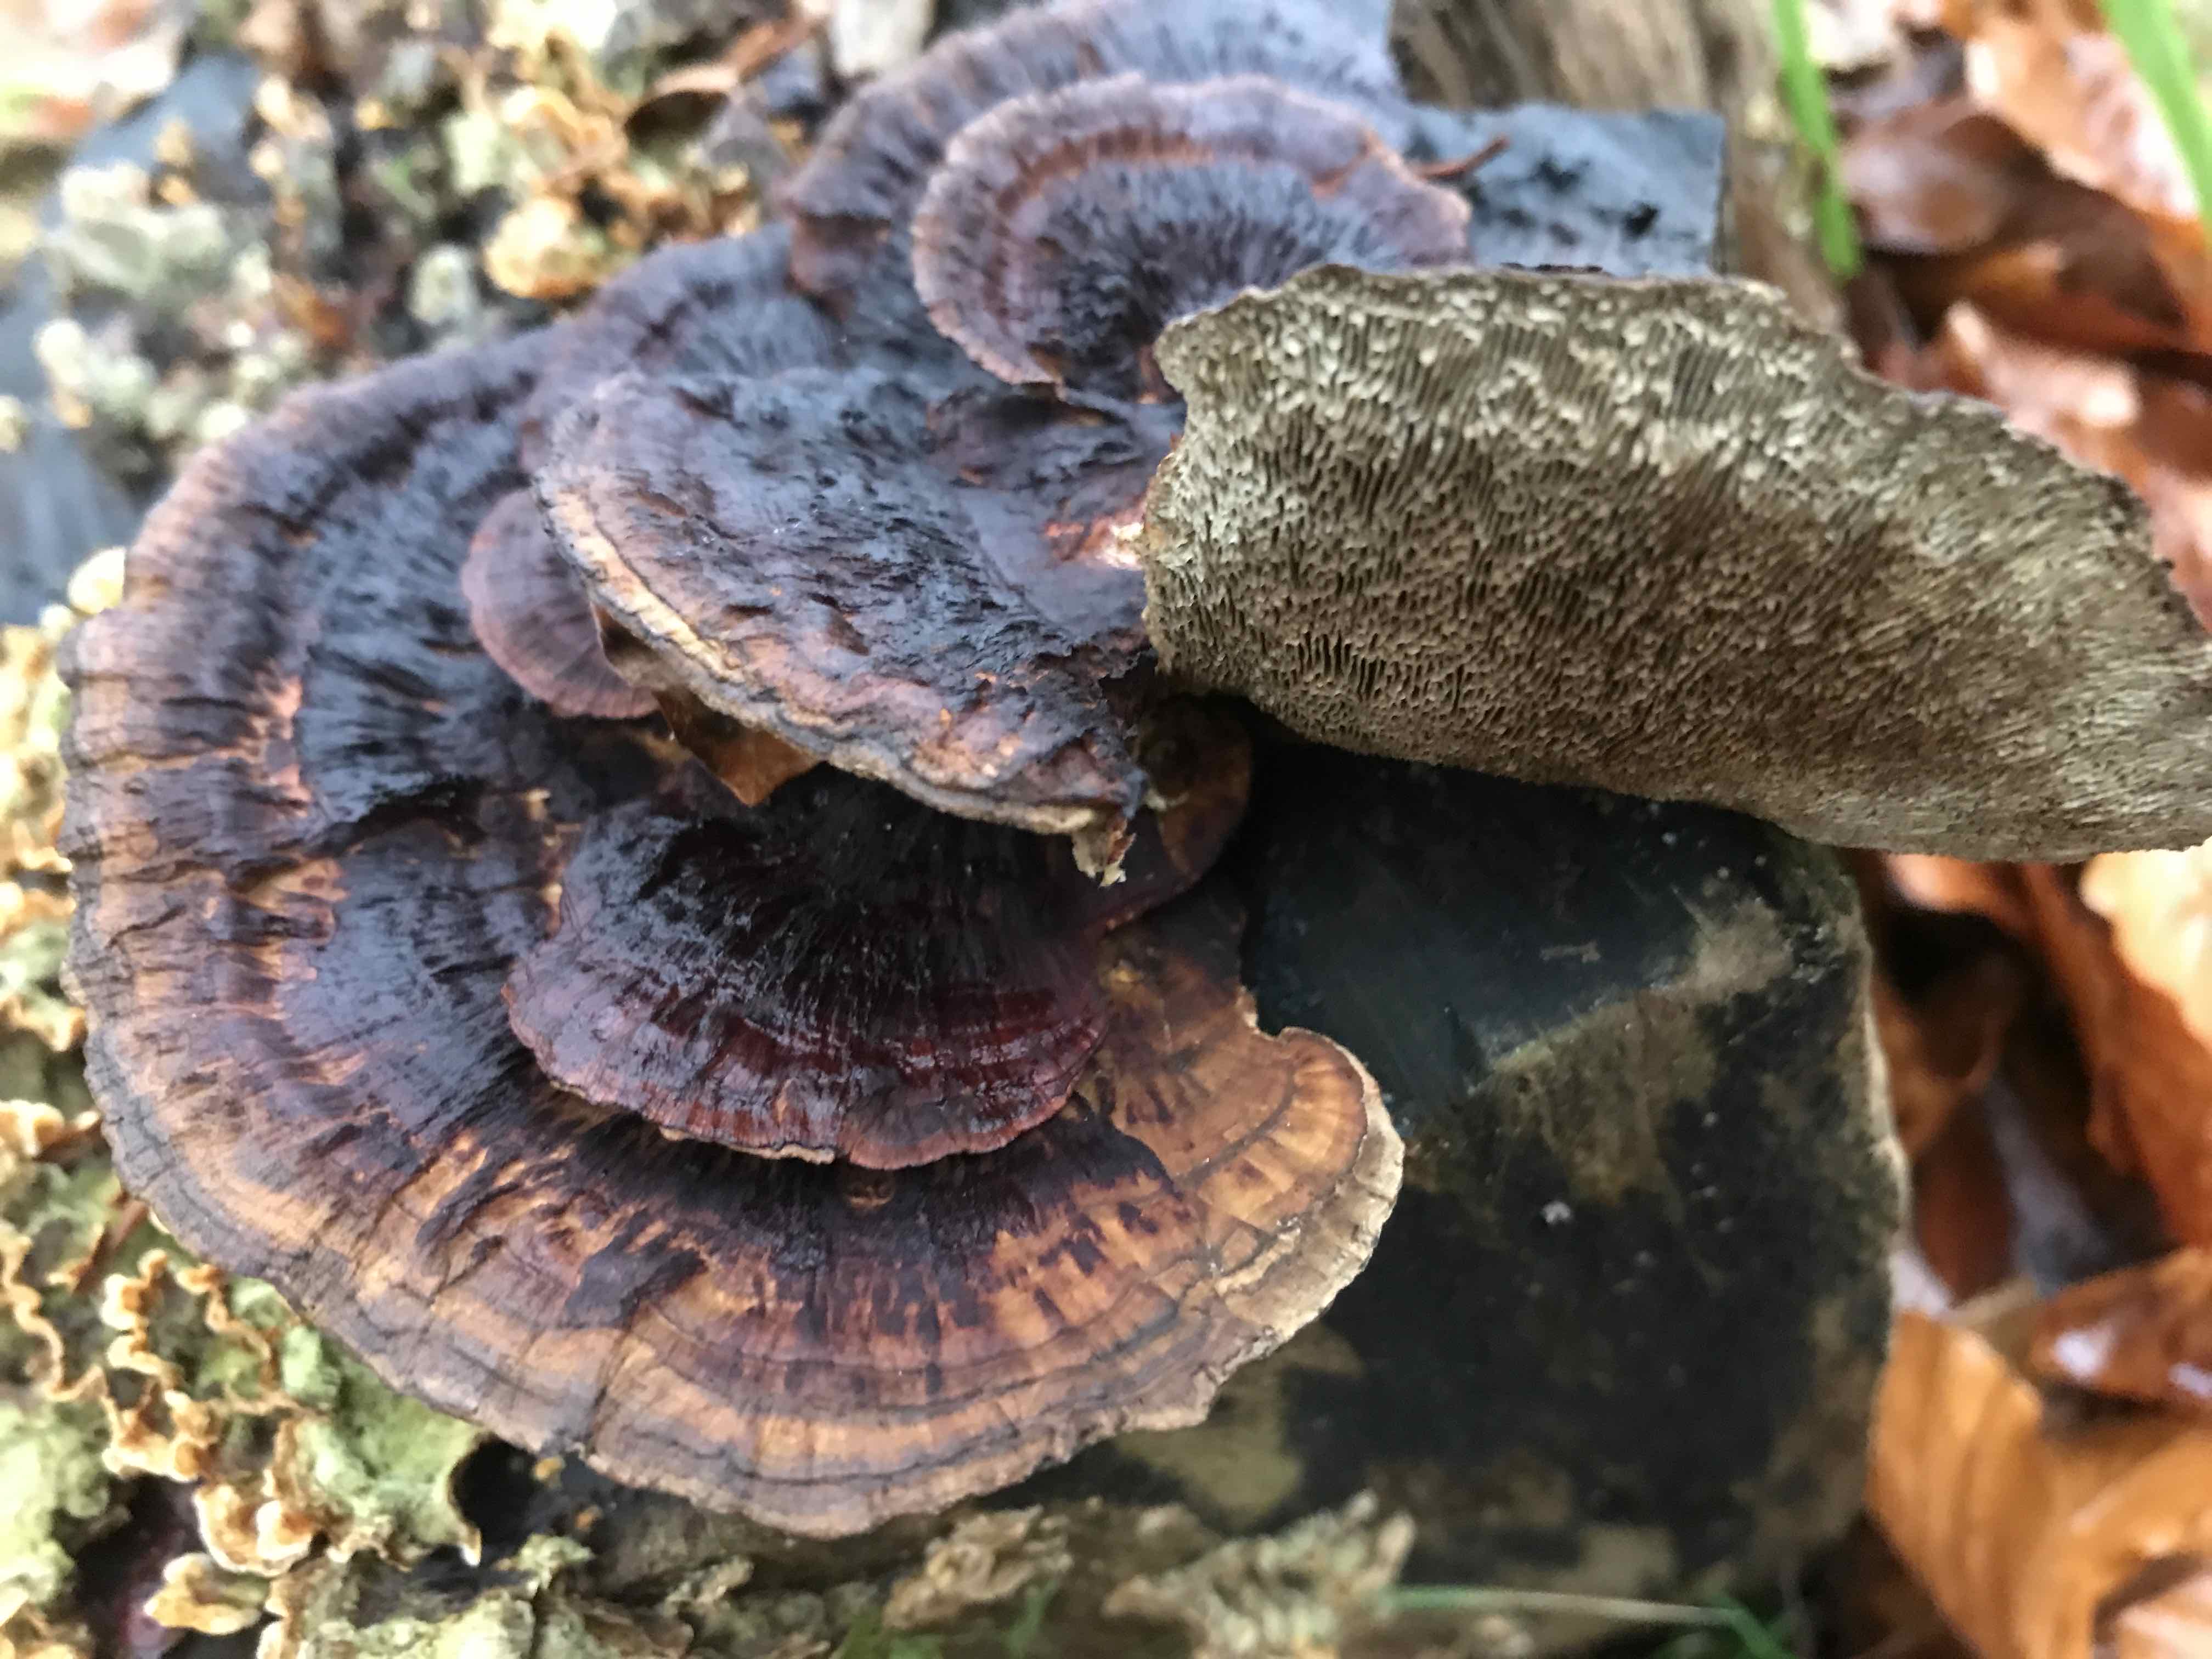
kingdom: Fungi
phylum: Basidiomycota
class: Agaricomycetes
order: Polyporales
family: Polyporaceae
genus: Daedaleopsis
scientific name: Daedaleopsis confragosa
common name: rødmende læderporesvamp
